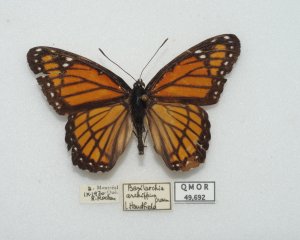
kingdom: Animalia
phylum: Arthropoda
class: Insecta
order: Lepidoptera
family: Nymphalidae
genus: Limenitis
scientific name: Limenitis archippus
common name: Viceroy
